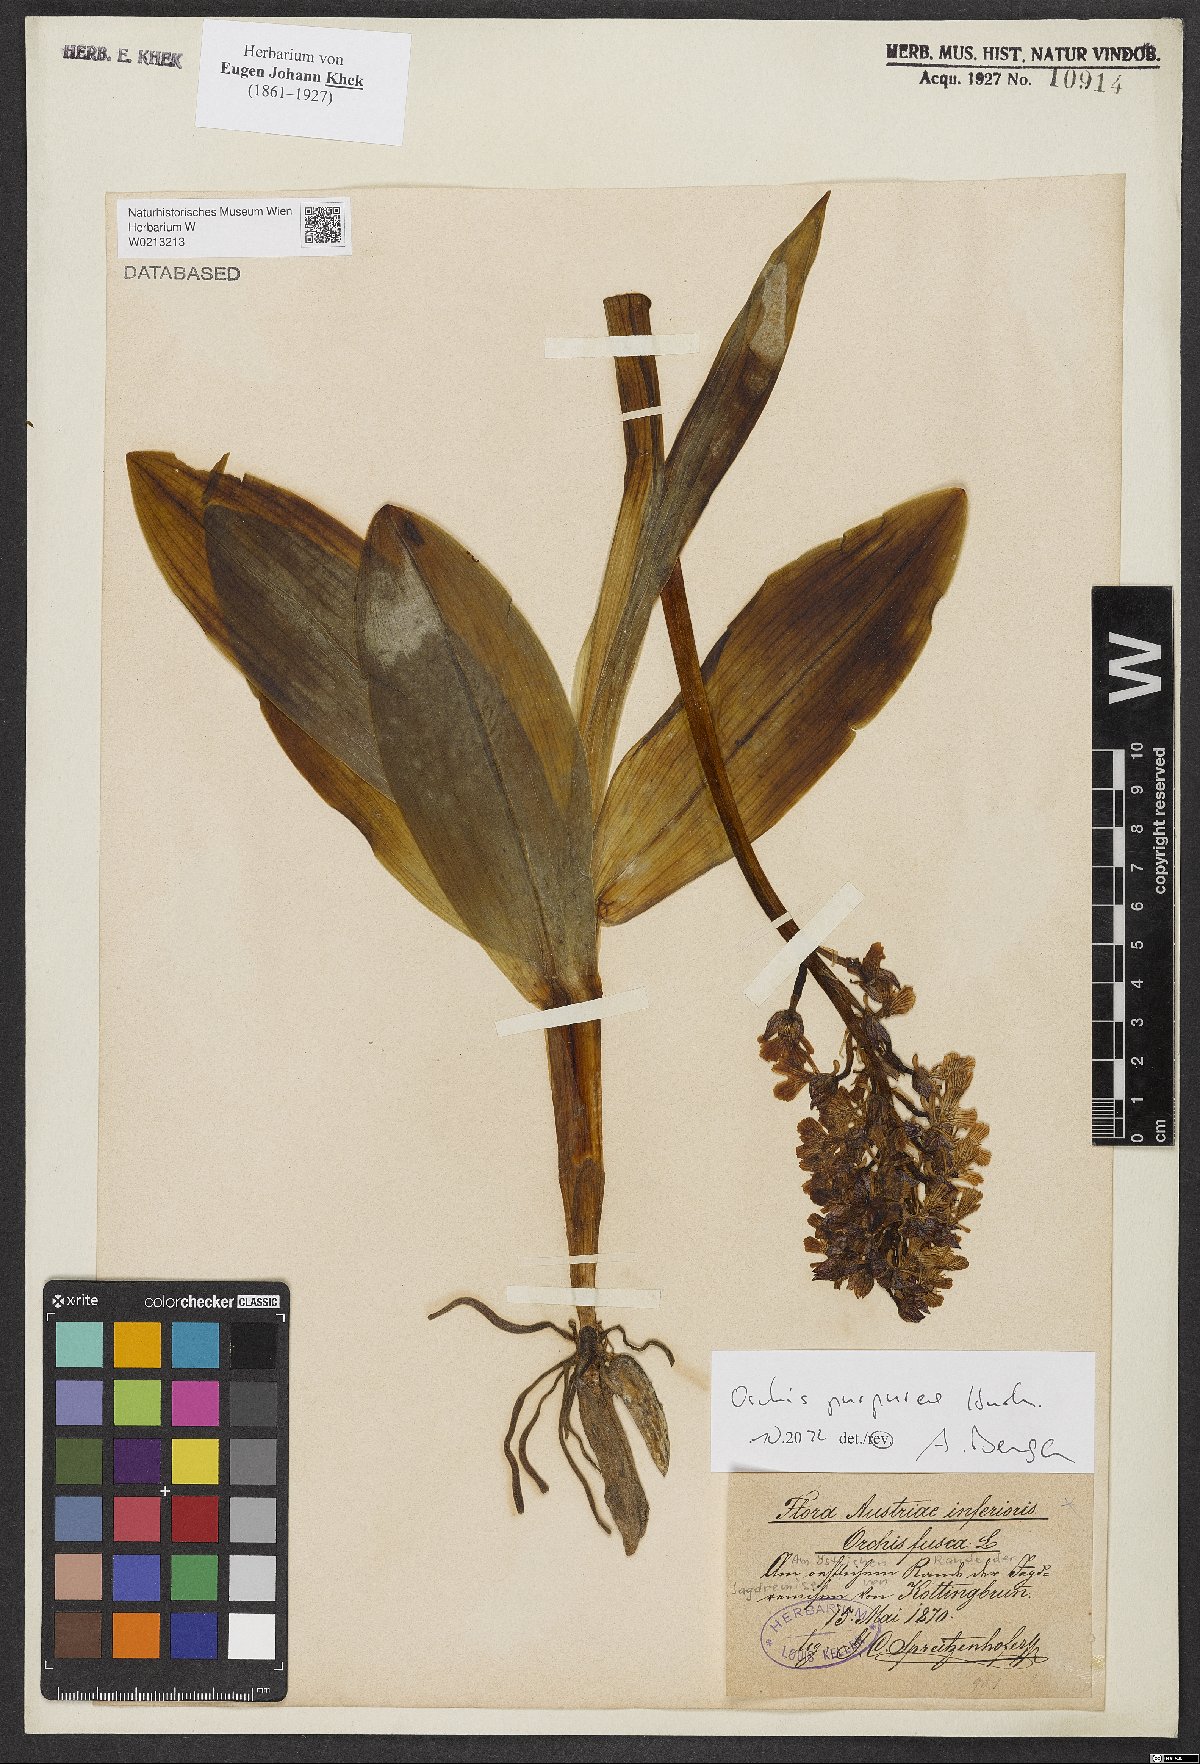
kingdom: Plantae
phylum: Tracheophyta
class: Liliopsida
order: Asparagales
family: Orchidaceae
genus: Orchis
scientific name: Orchis purpurea
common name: Lady orchid
